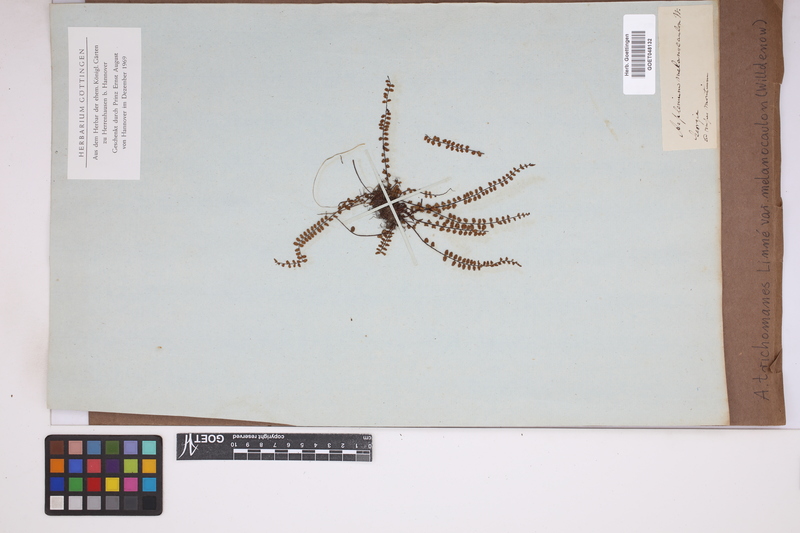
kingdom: Plantae
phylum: Tracheophyta
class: Polypodiopsida
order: Polypodiales
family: Aspleniaceae
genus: Asplenium
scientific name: Asplenium trichomanes
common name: Maidenhair spleenwort
